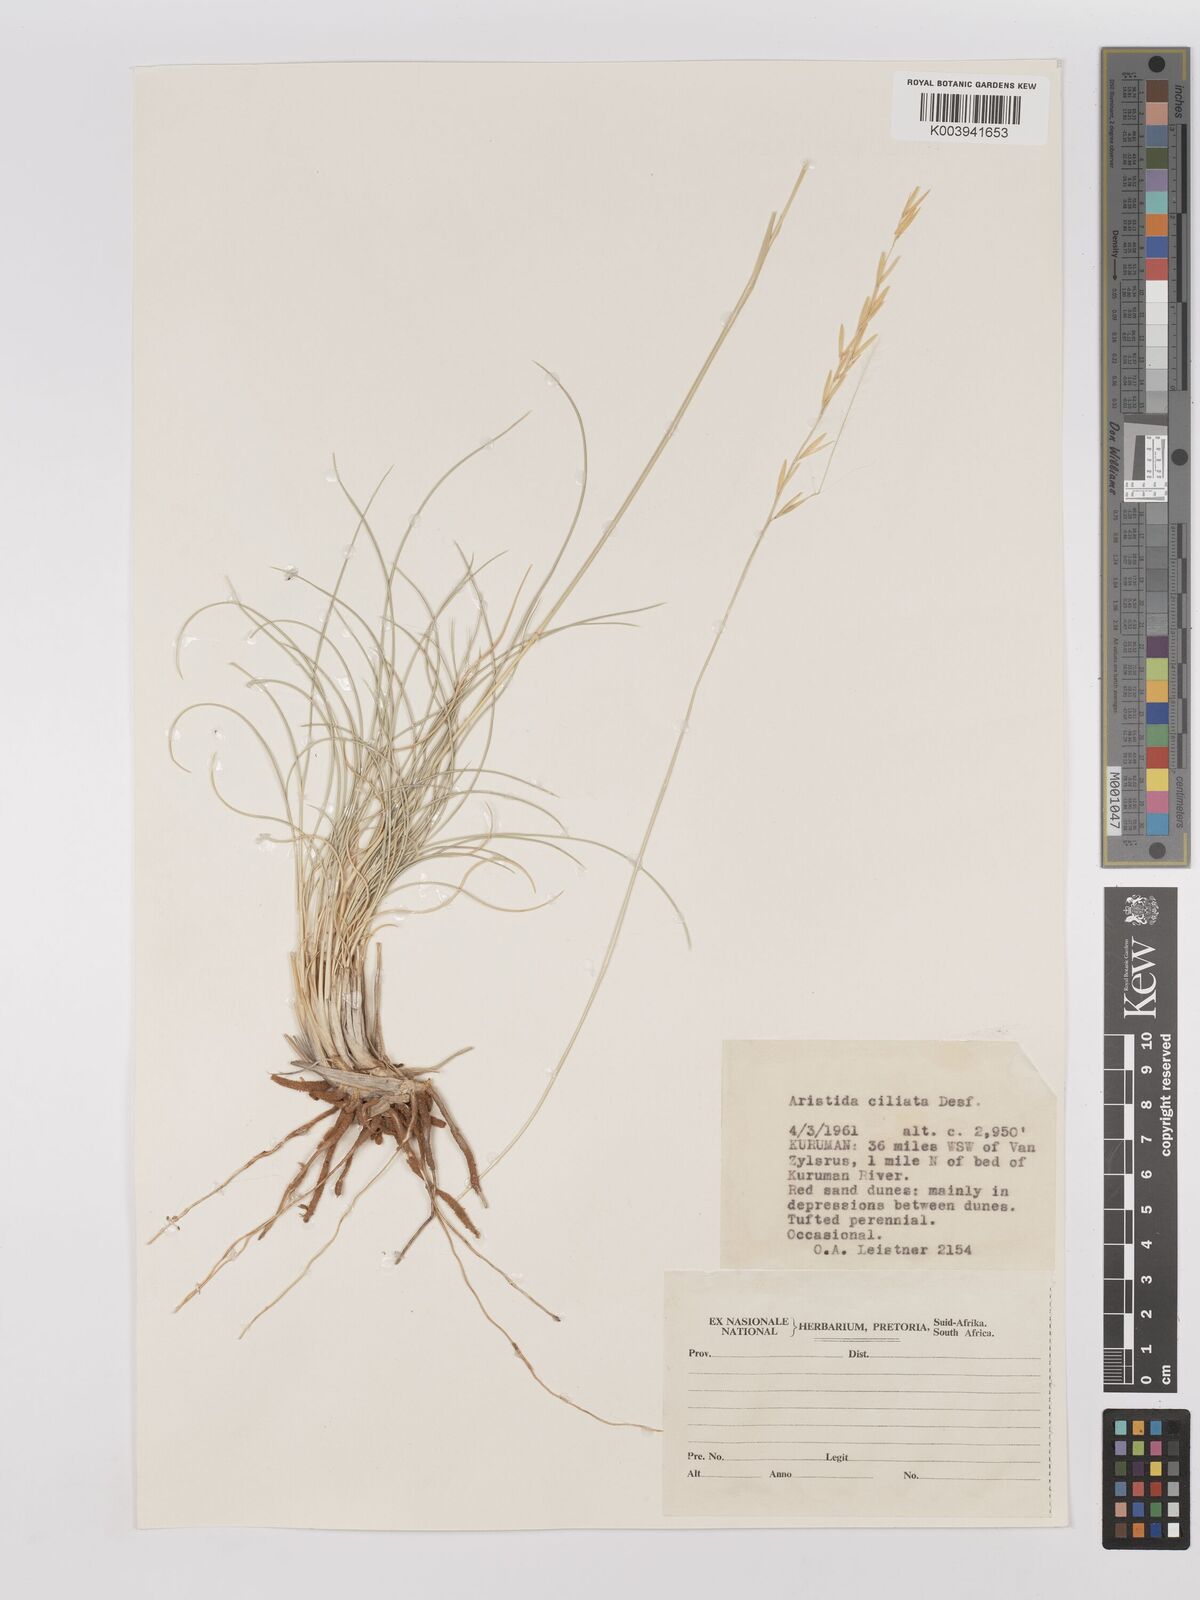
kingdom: Plantae
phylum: Tracheophyta
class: Liliopsida
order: Poales
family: Poaceae
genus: Stipagrostis
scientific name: Stipagrostis ciliata
